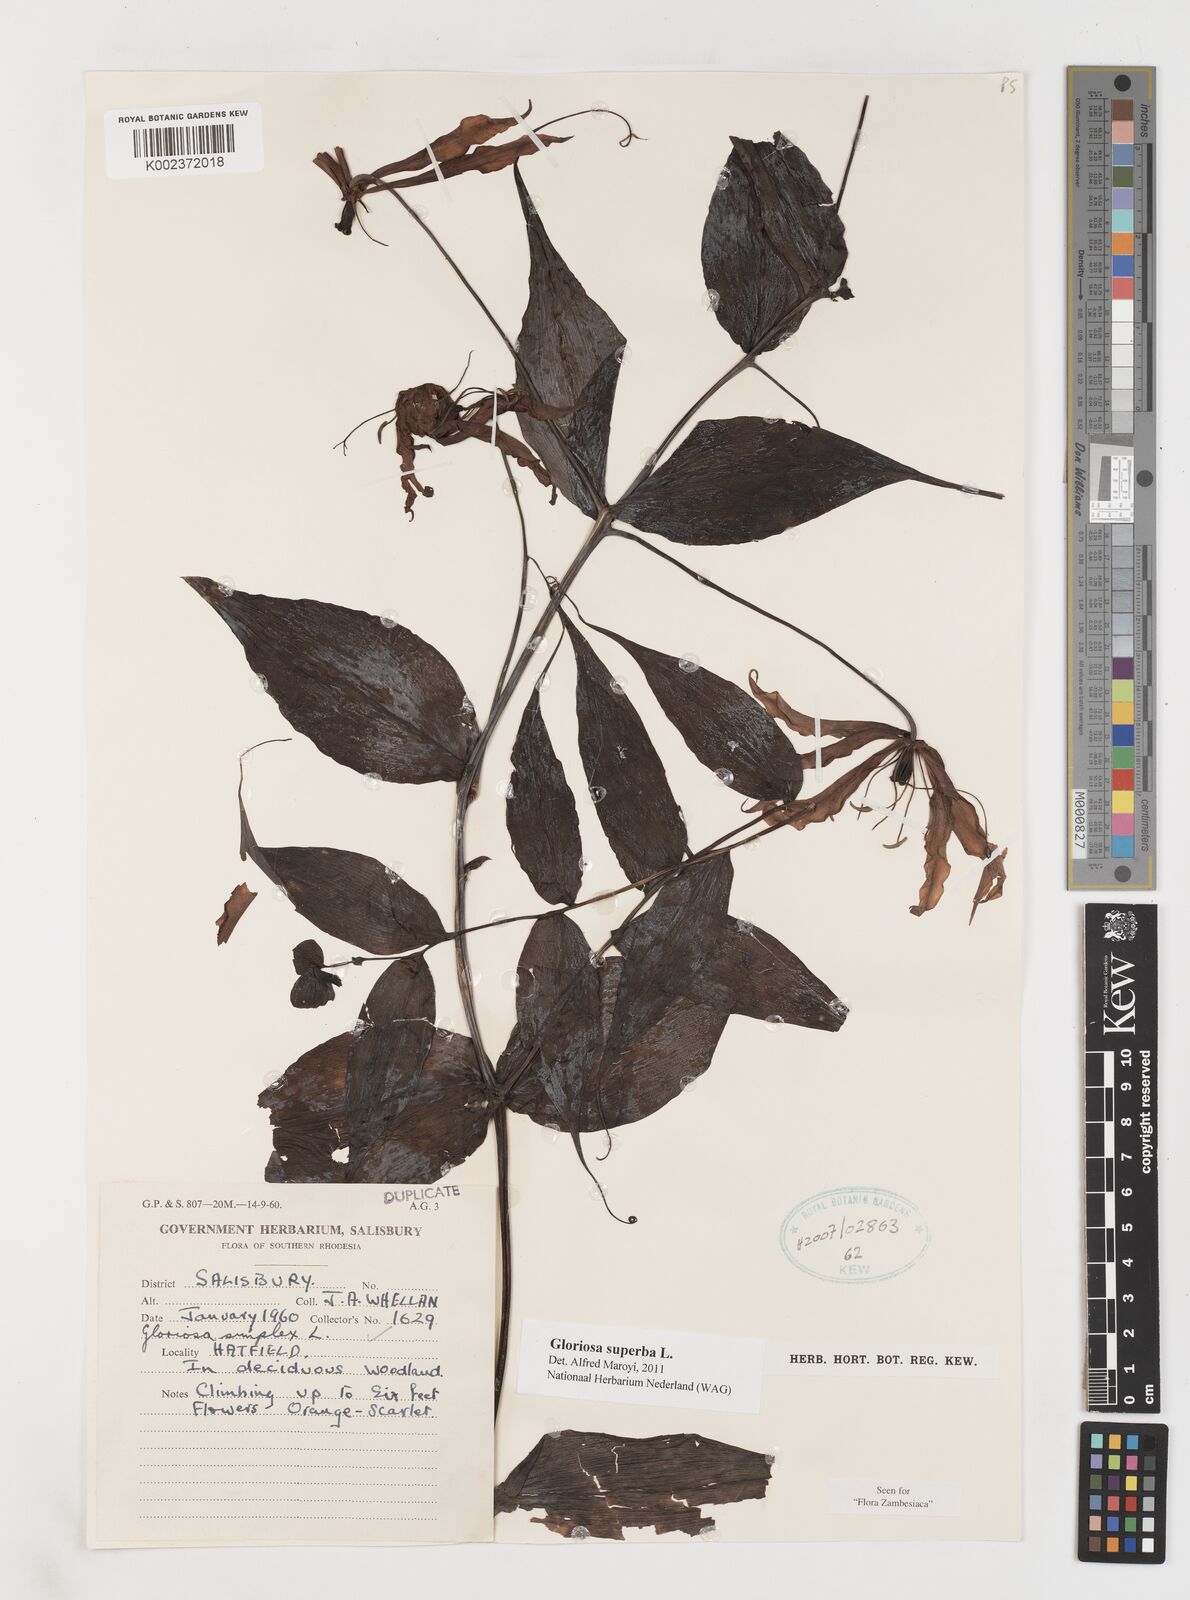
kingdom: Plantae
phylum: Tracheophyta
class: Liliopsida
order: Liliales
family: Colchicaceae
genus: Gloriosa
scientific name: Gloriosa superba
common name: Flame lily
